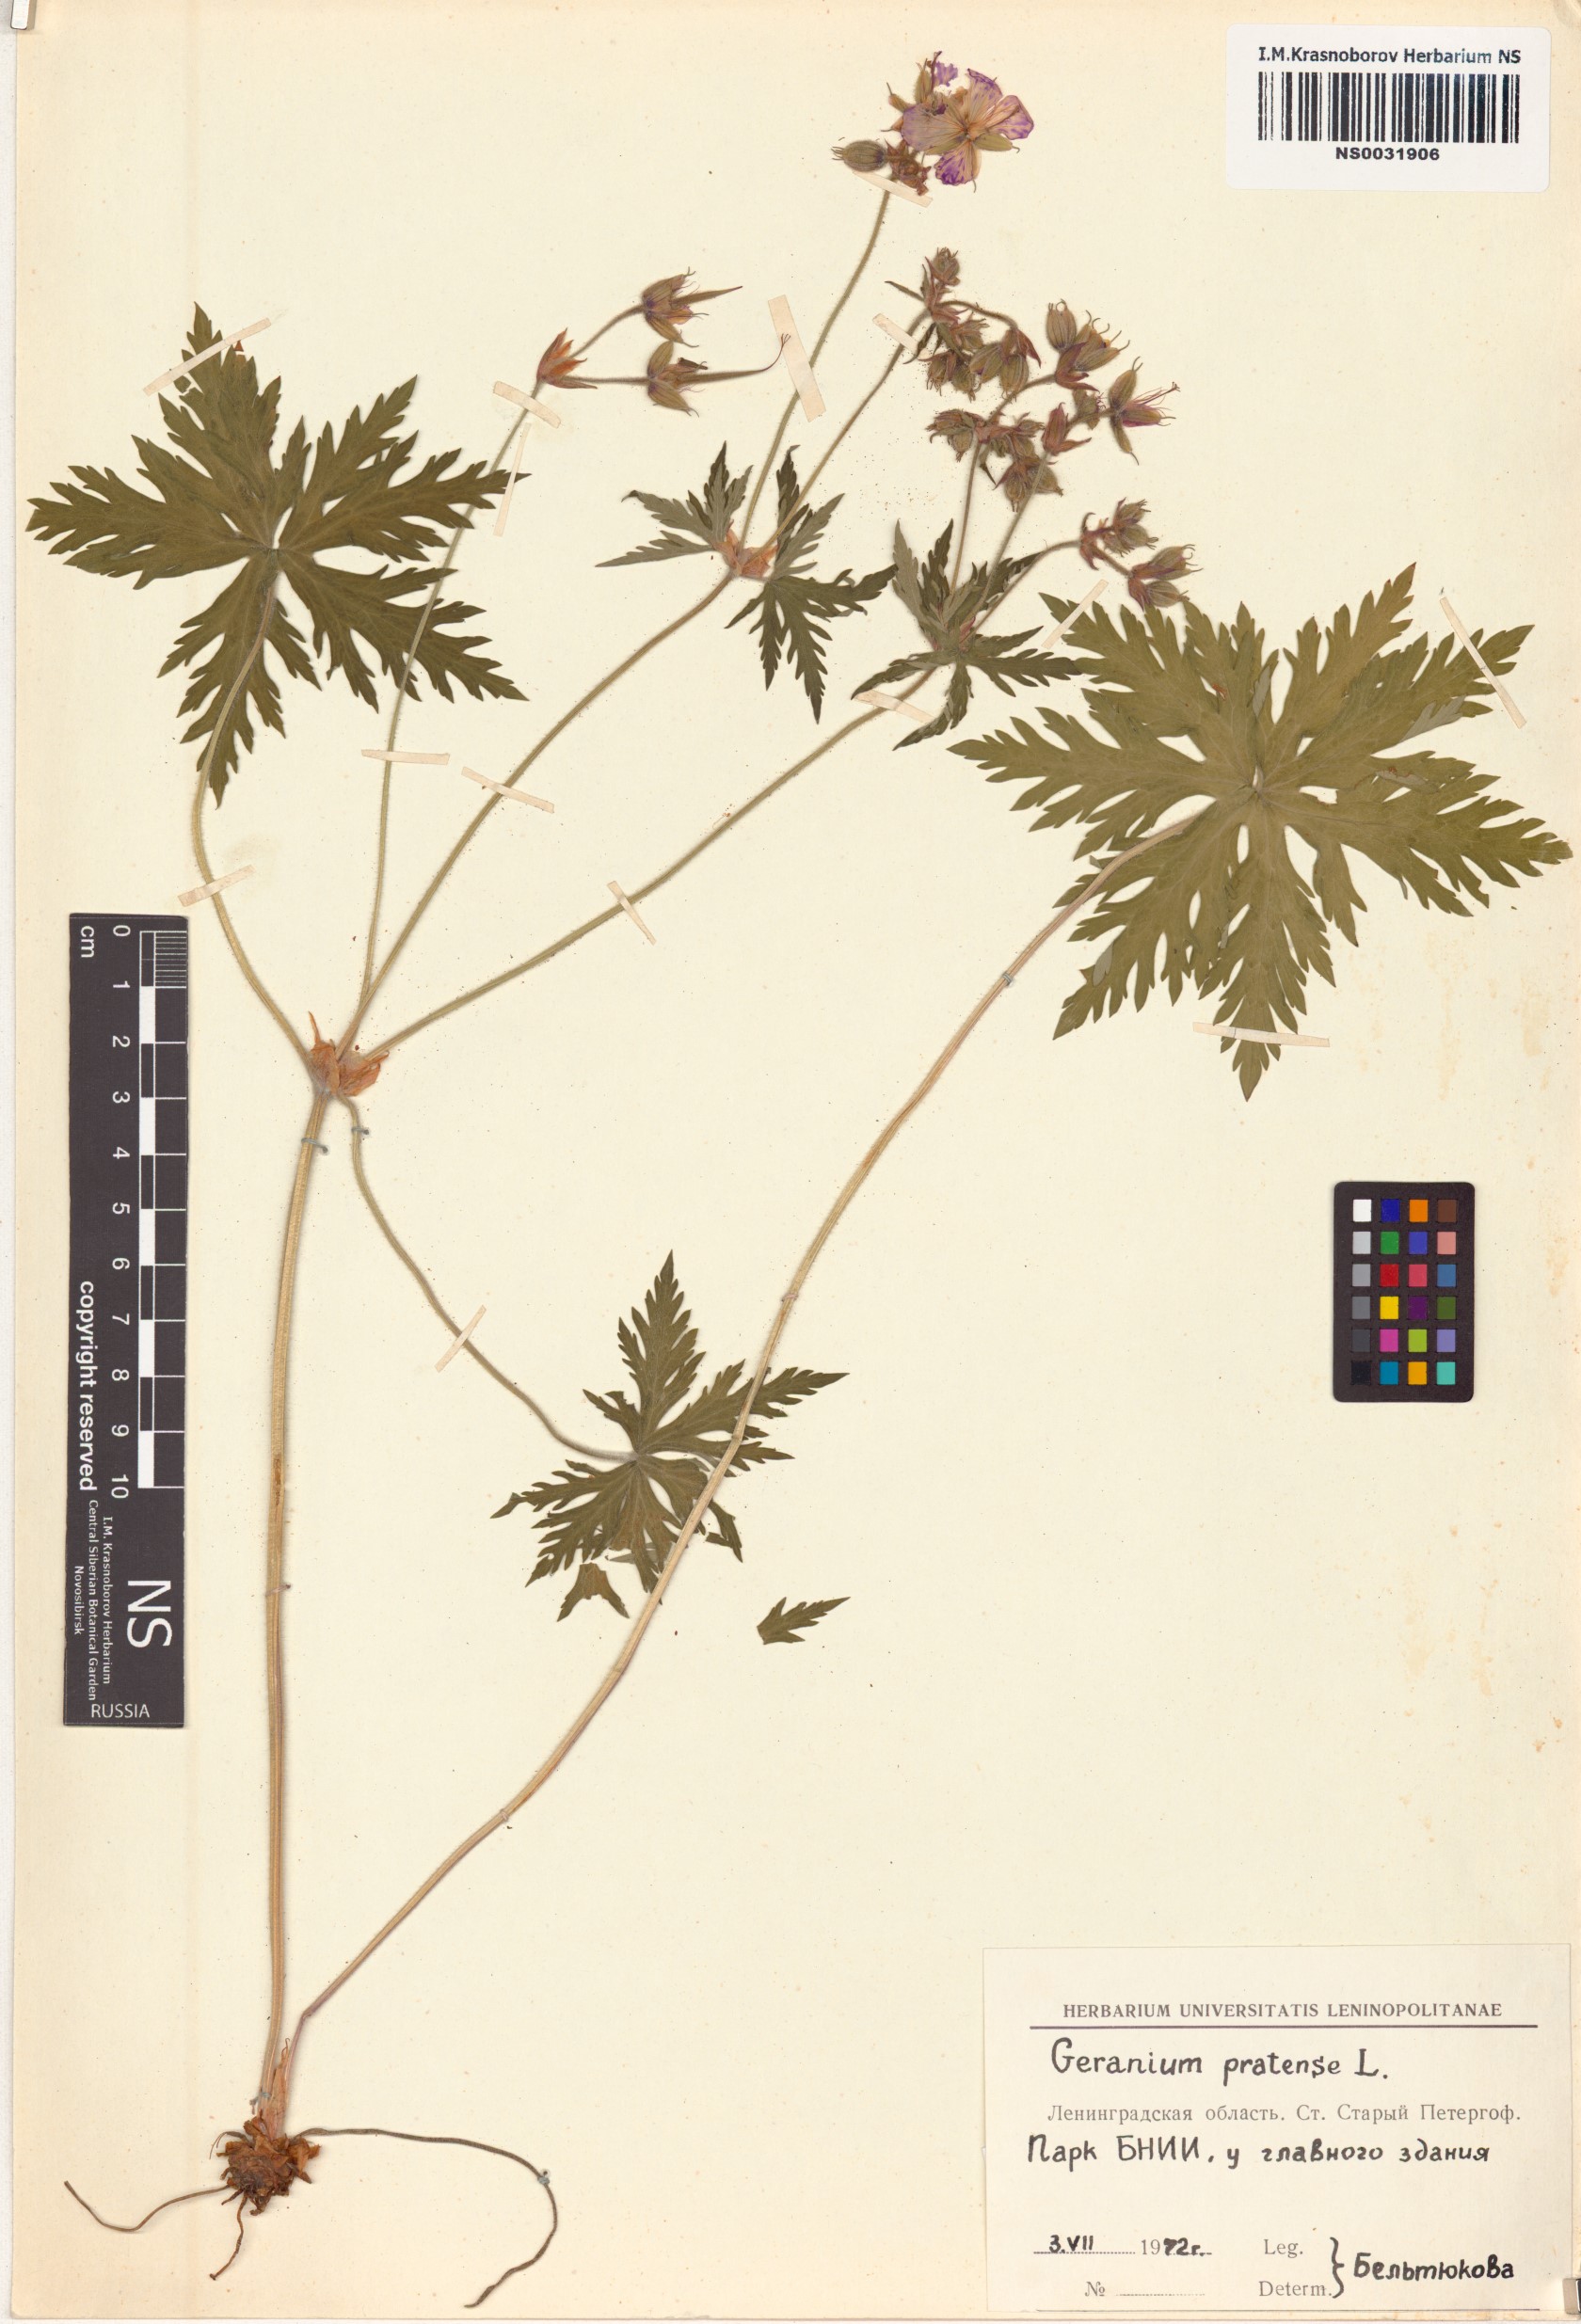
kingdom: Plantae
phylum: Tracheophyta
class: Magnoliopsida
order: Geraniales
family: Geraniaceae
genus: Geranium
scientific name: Geranium pratense
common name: Meadow crane's-bill
